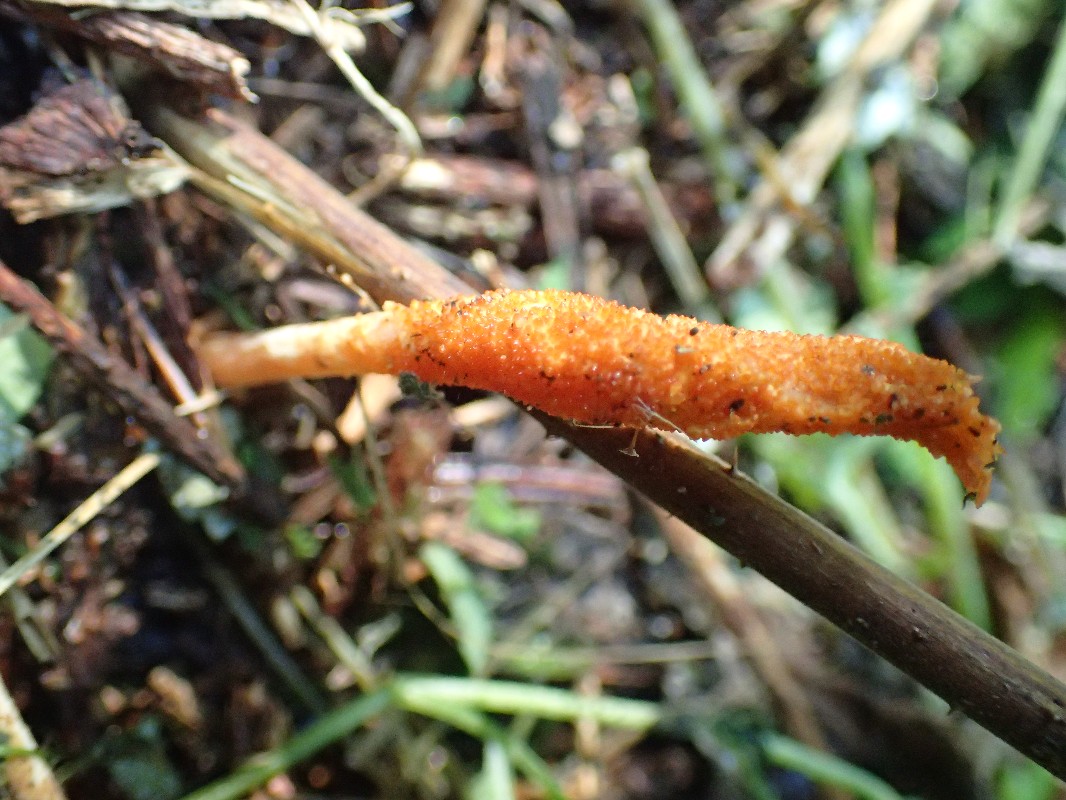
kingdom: Fungi
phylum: Ascomycota
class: Sordariomycetes
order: Hypocreales
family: Cordycipitaceae
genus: Cordyceps
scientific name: Cordyceps militaris
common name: puppe-snyltekølle
